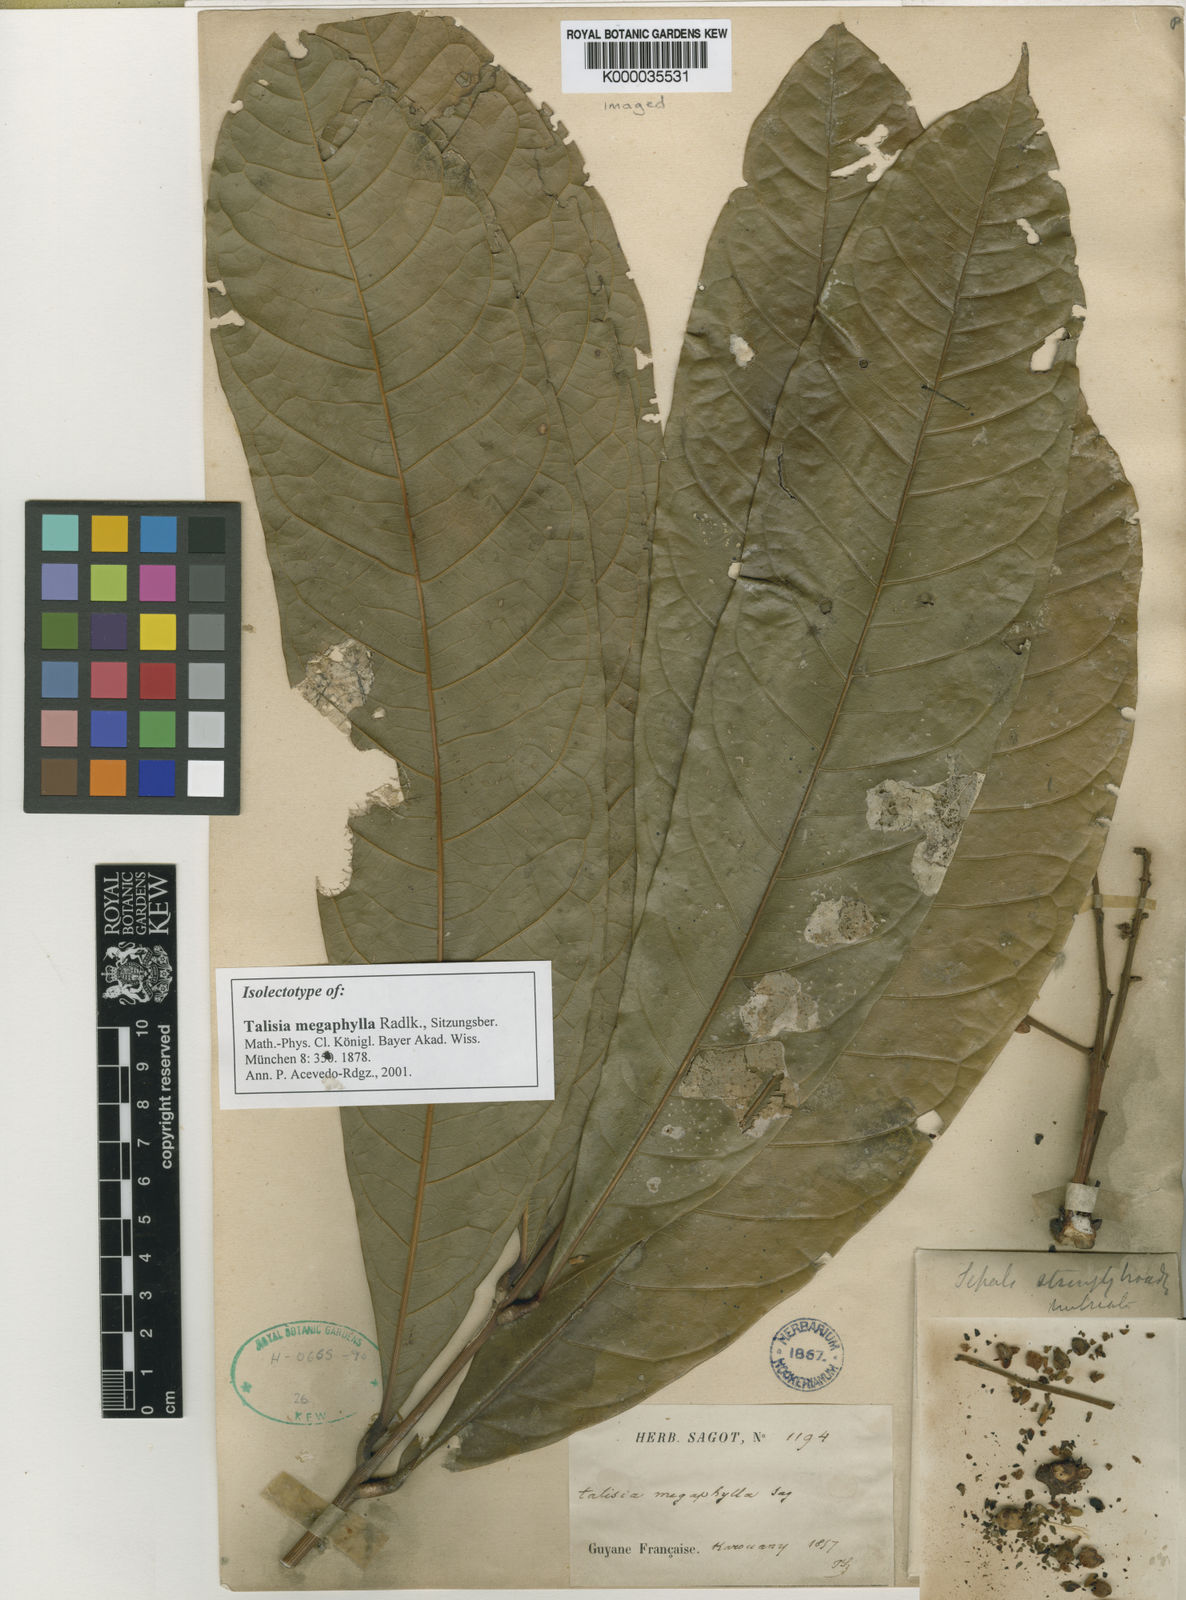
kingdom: Plantae
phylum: Tracheophyta
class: Magnoliopsida
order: Sapindales
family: Sapindaceae
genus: Talisia
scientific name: Talisia
